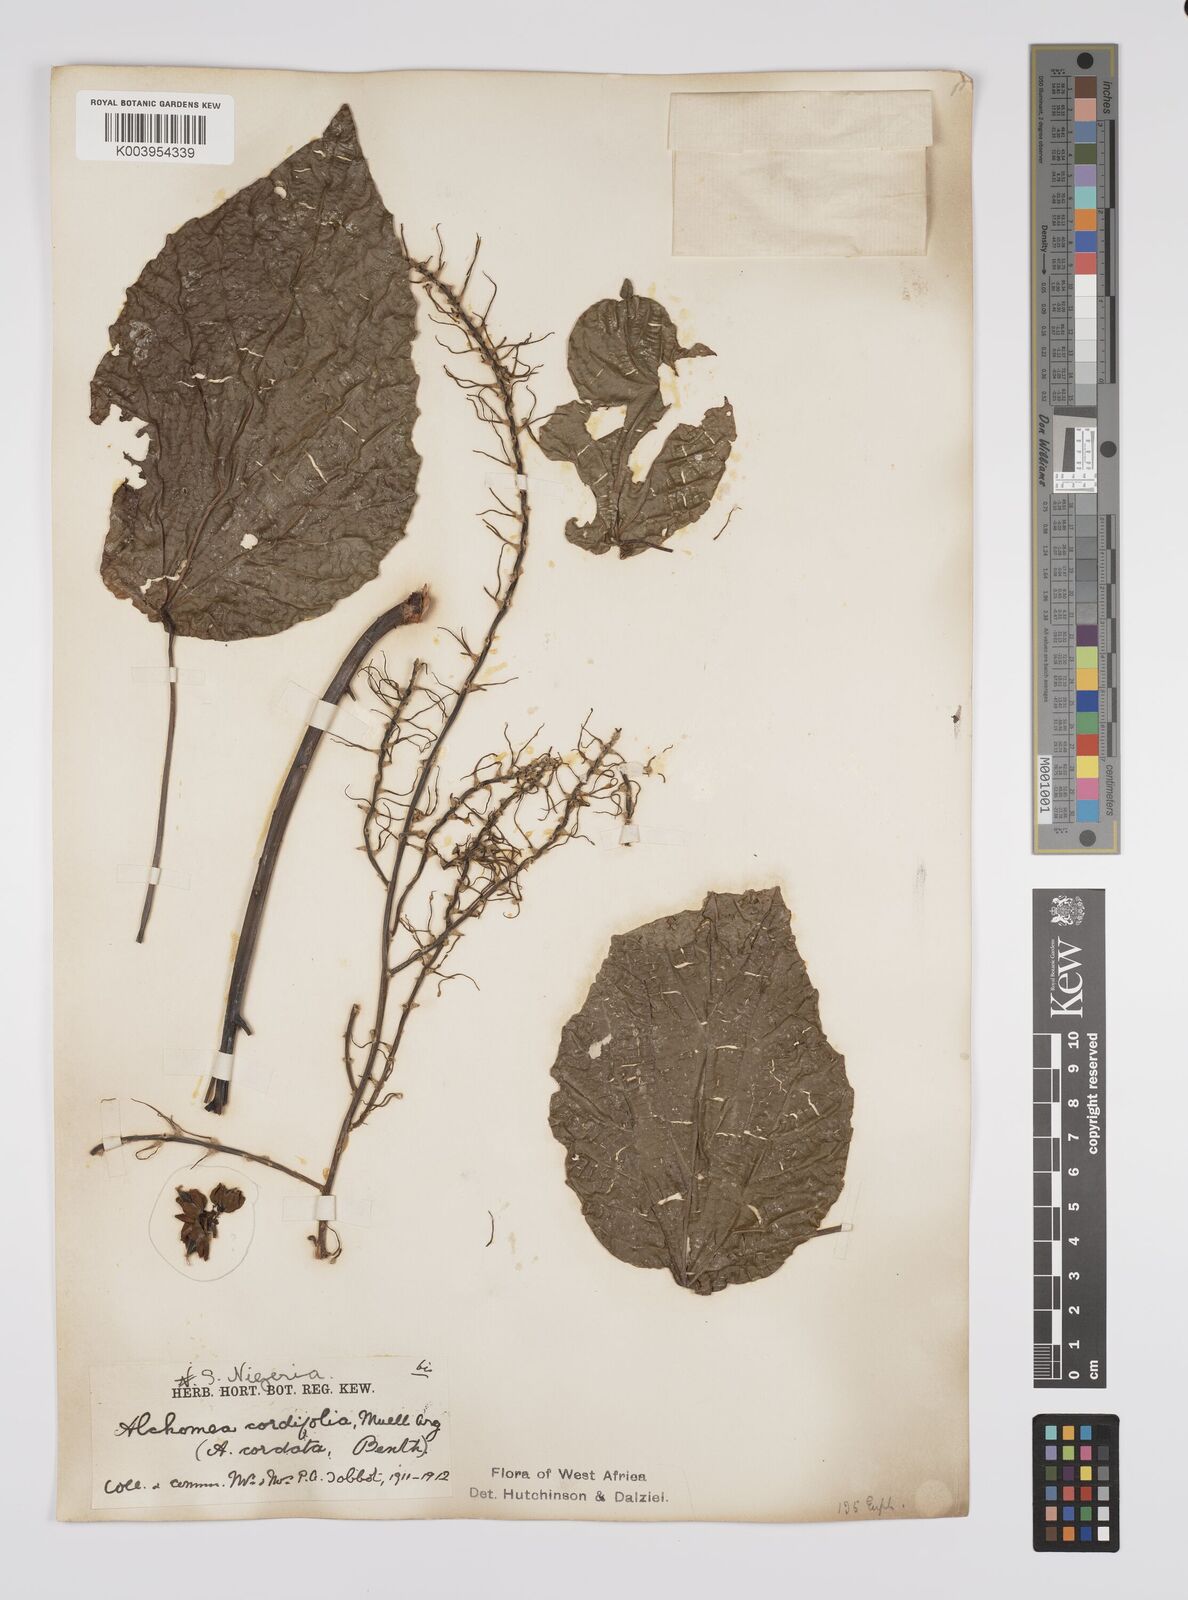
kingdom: Plantae
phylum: Tracheophyta
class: Magnoliopsida
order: Malpighiales
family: Euphorbiaceae
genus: Alchornea
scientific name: Alchornea cordifolia
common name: Christmasbush
